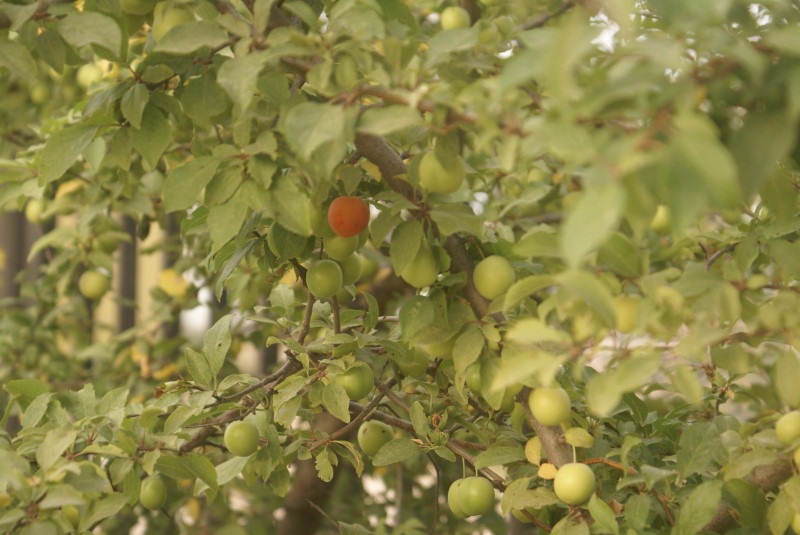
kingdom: Plantae
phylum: Tracheophyta
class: Magnoliopsida
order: Rosales
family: Rosaceae
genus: Prunus
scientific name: Prunus
